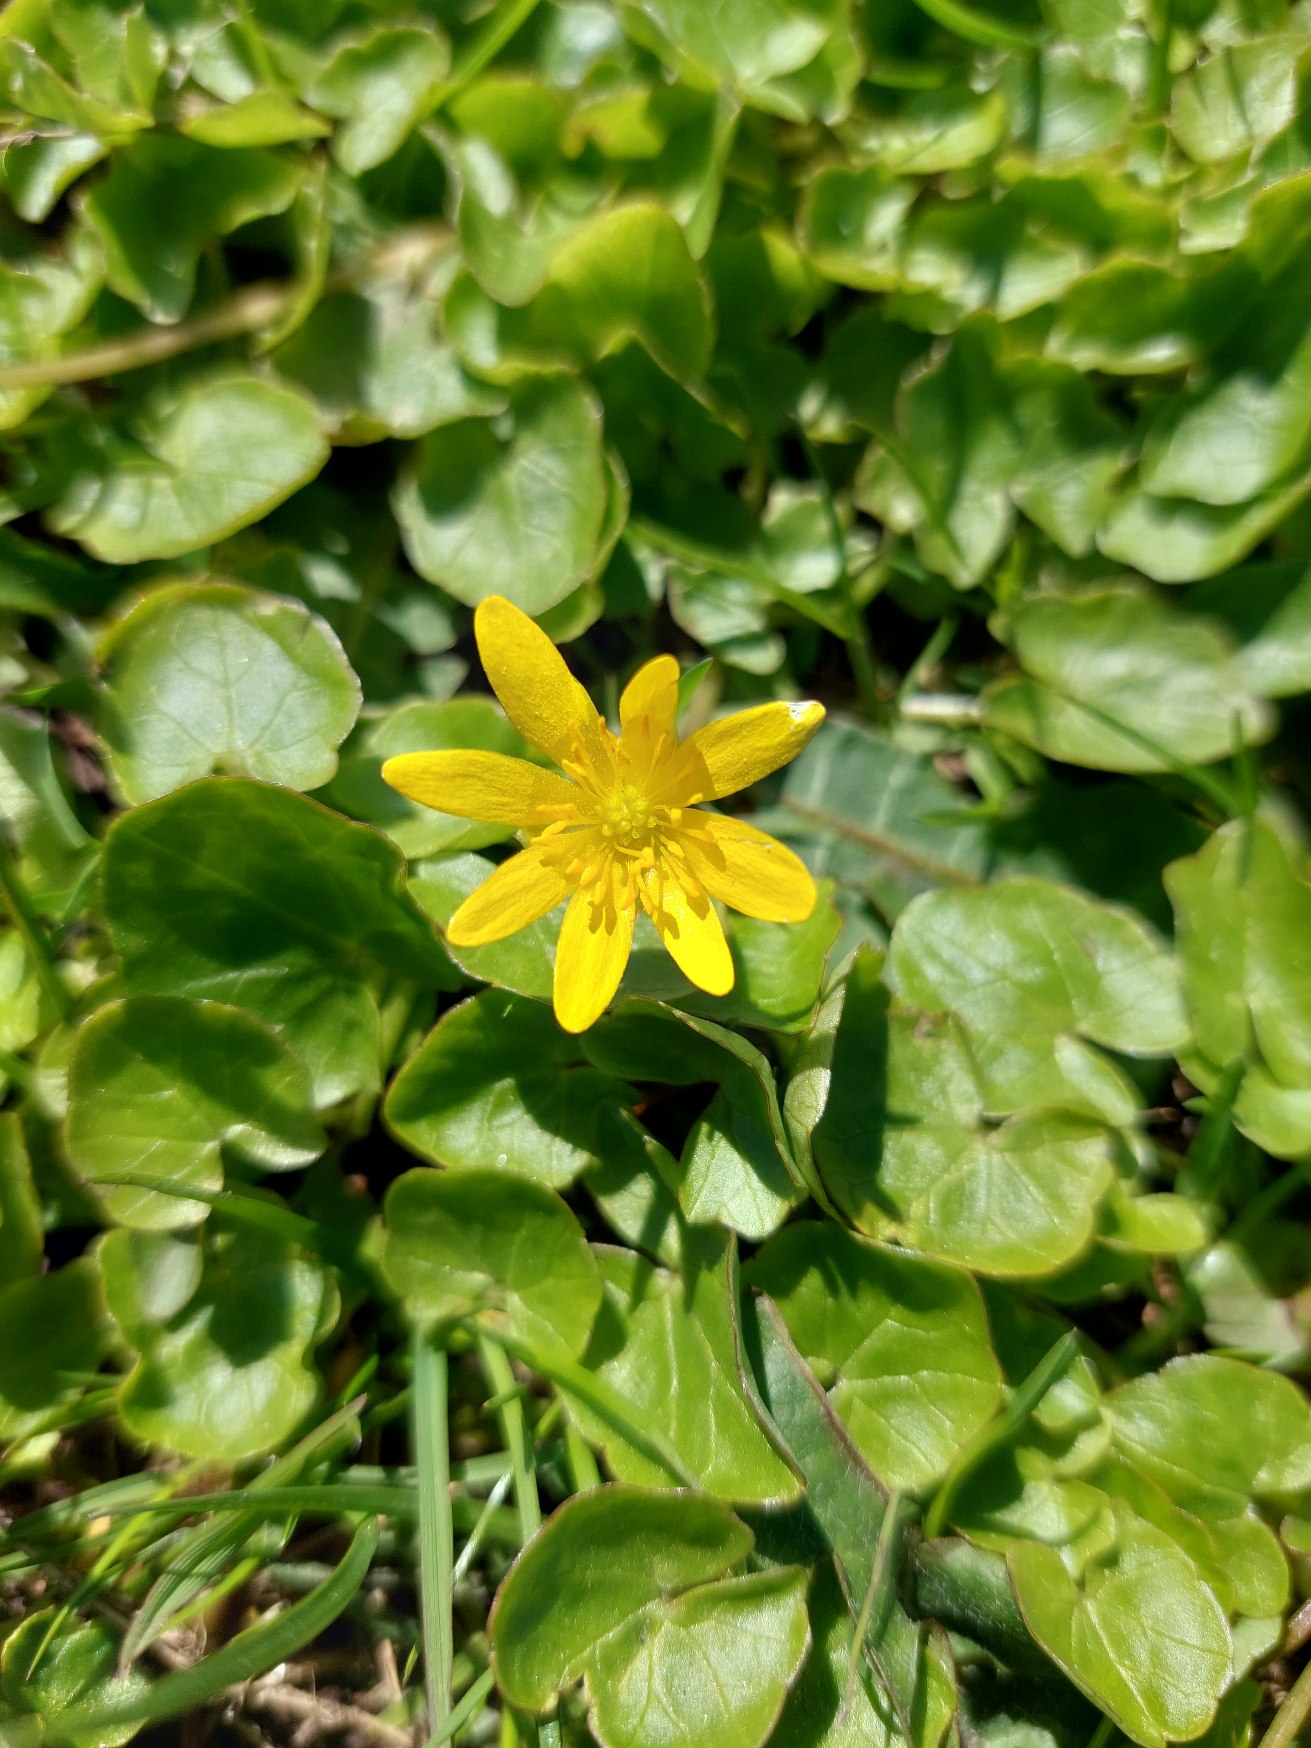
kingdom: Plantae
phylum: Tracheophyta
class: Magnoliopsida
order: Ranunculales
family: Ranunculaceae
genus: Ficaria
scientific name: Ficaria verna
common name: Vorterod
